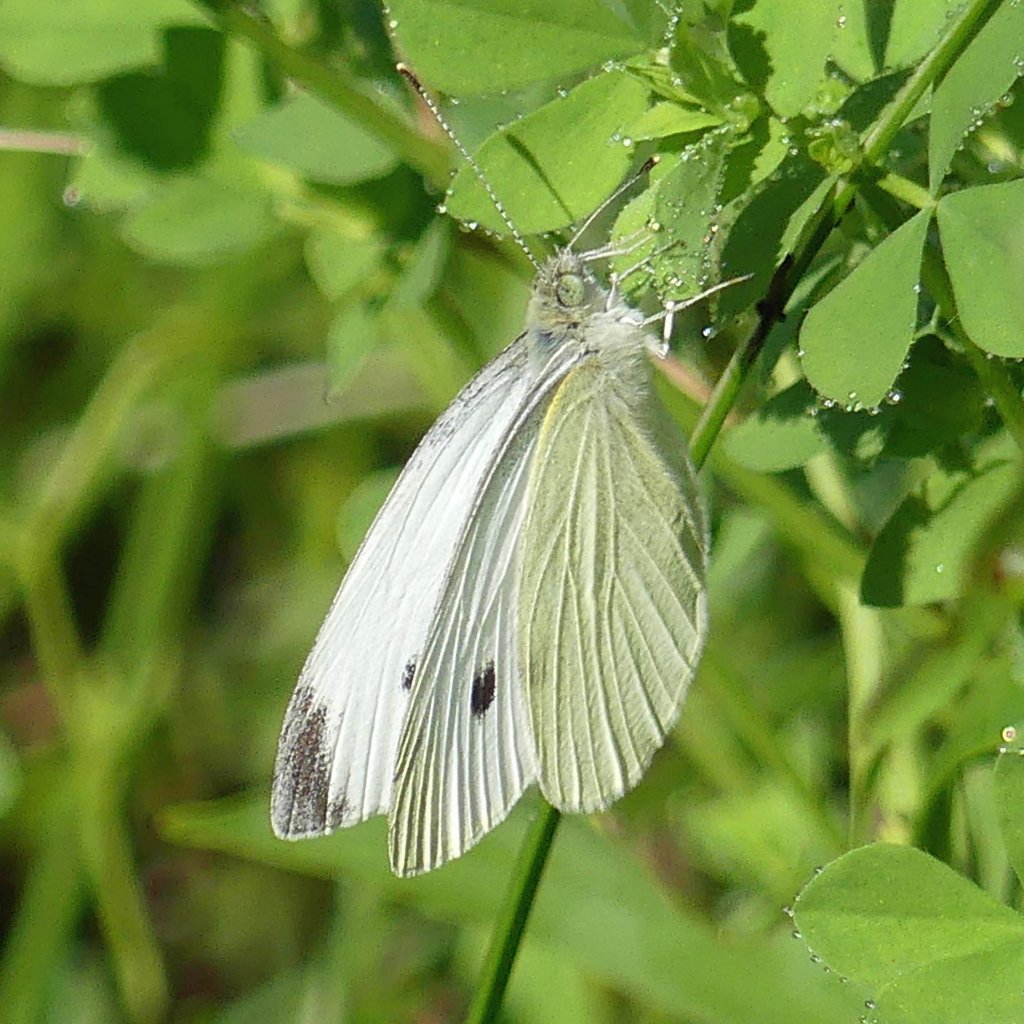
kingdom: Animalia
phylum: Arthropoda
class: Insecta
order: Lepidoptera
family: Pieridae
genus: Pieris
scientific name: Pieris rapae
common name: Cabbage White
